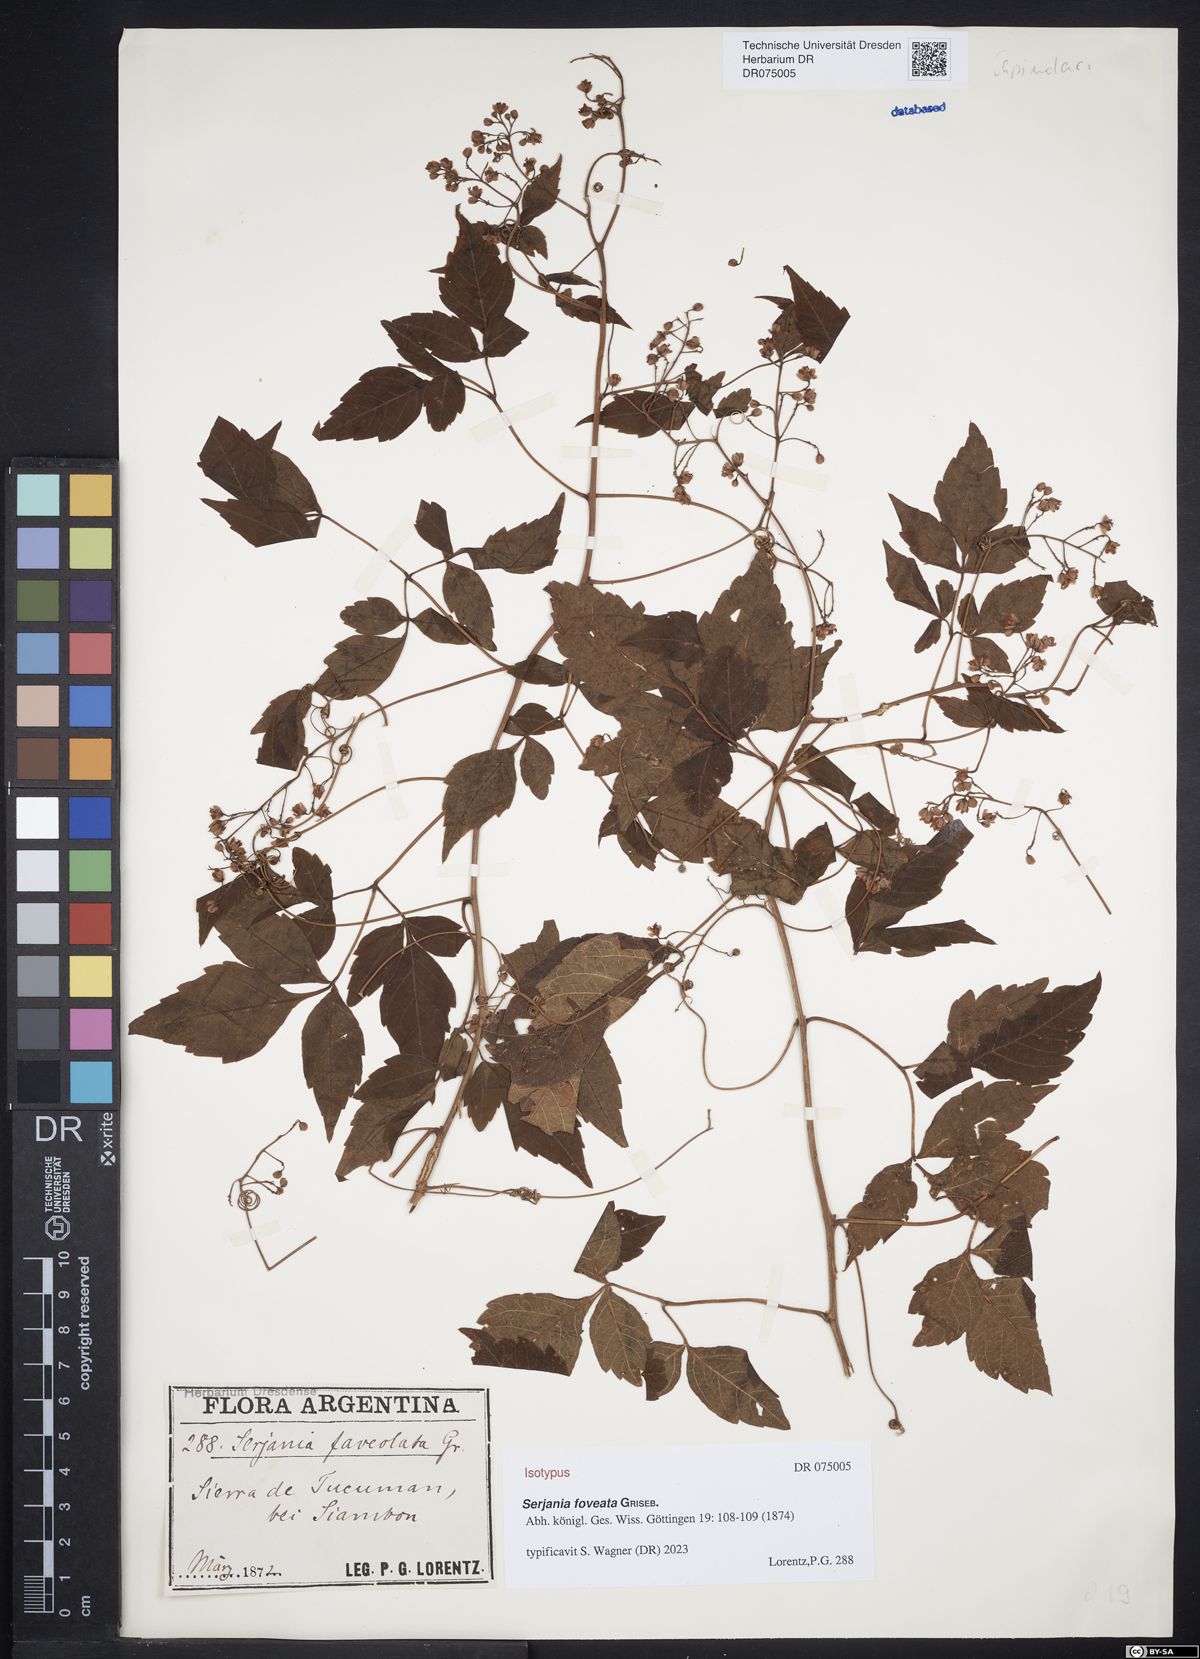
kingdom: Plantae
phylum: Tracheophyta
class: Magnoliopsida
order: Sapindales
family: Sapindaceae
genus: Serjania
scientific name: Serjania foveata
